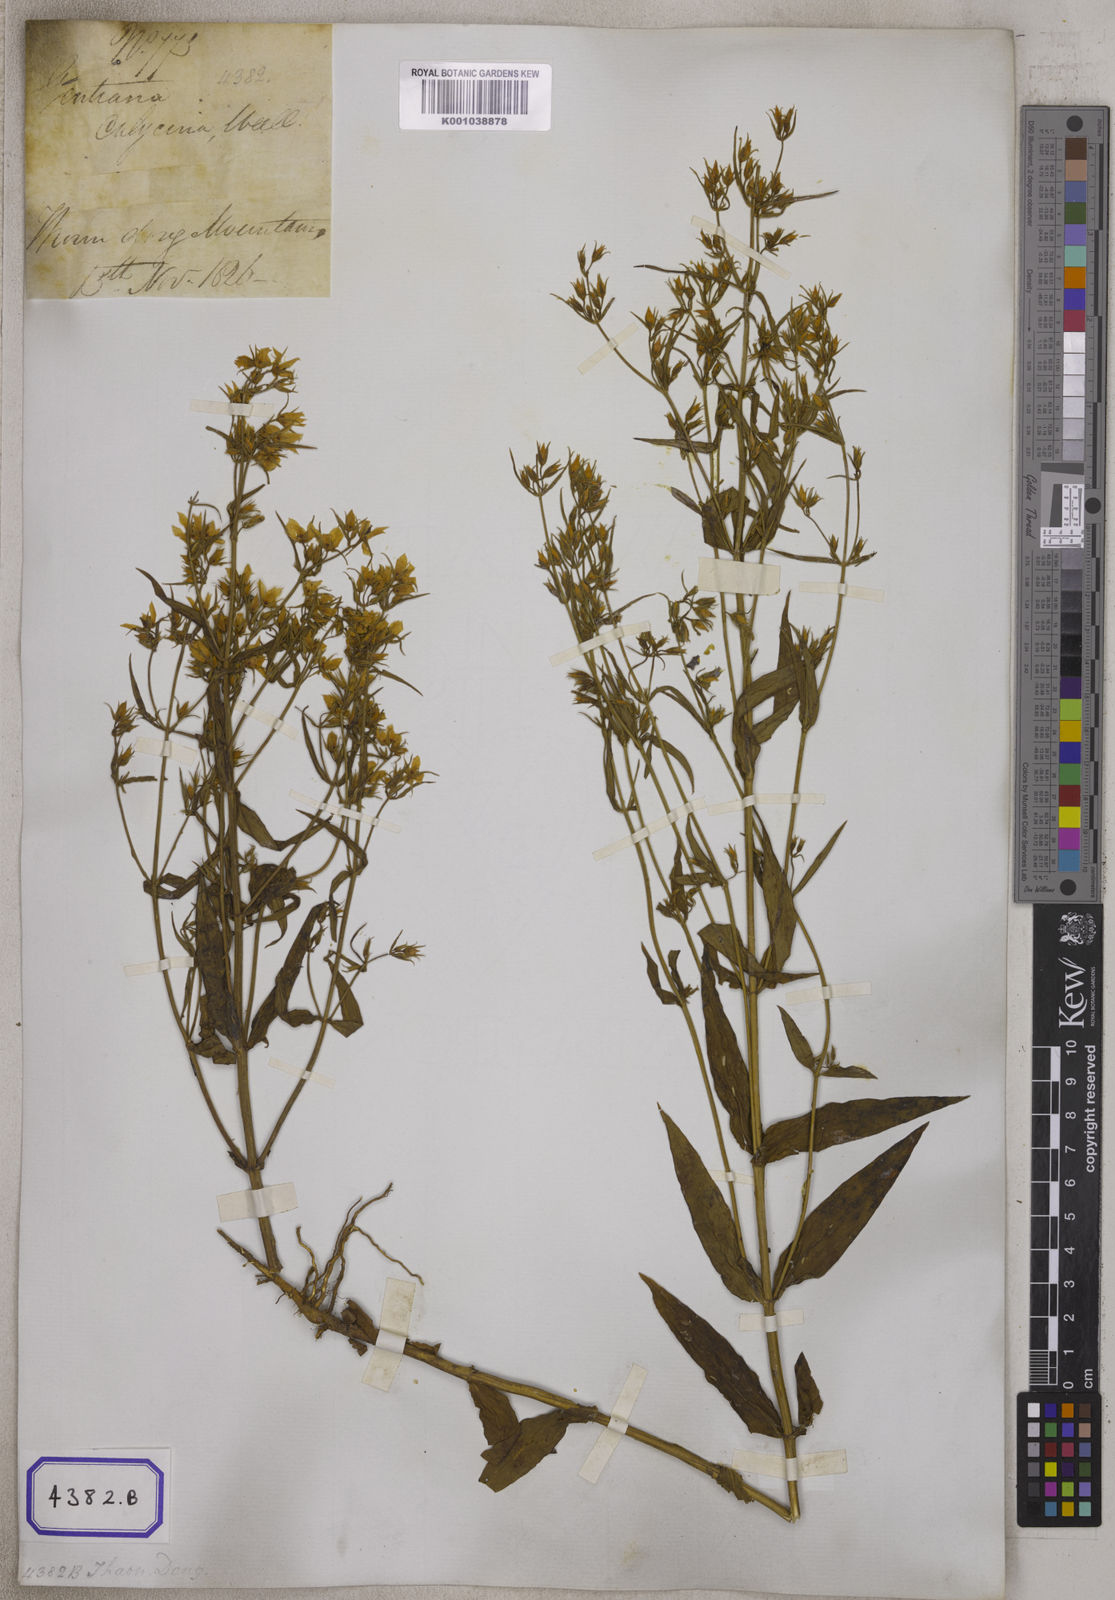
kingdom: Plantae
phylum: Tracheophyta
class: Magnoliopsida
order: Gentianales
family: Gentianaceae
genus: Swertia
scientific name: Swertia angustifolia
